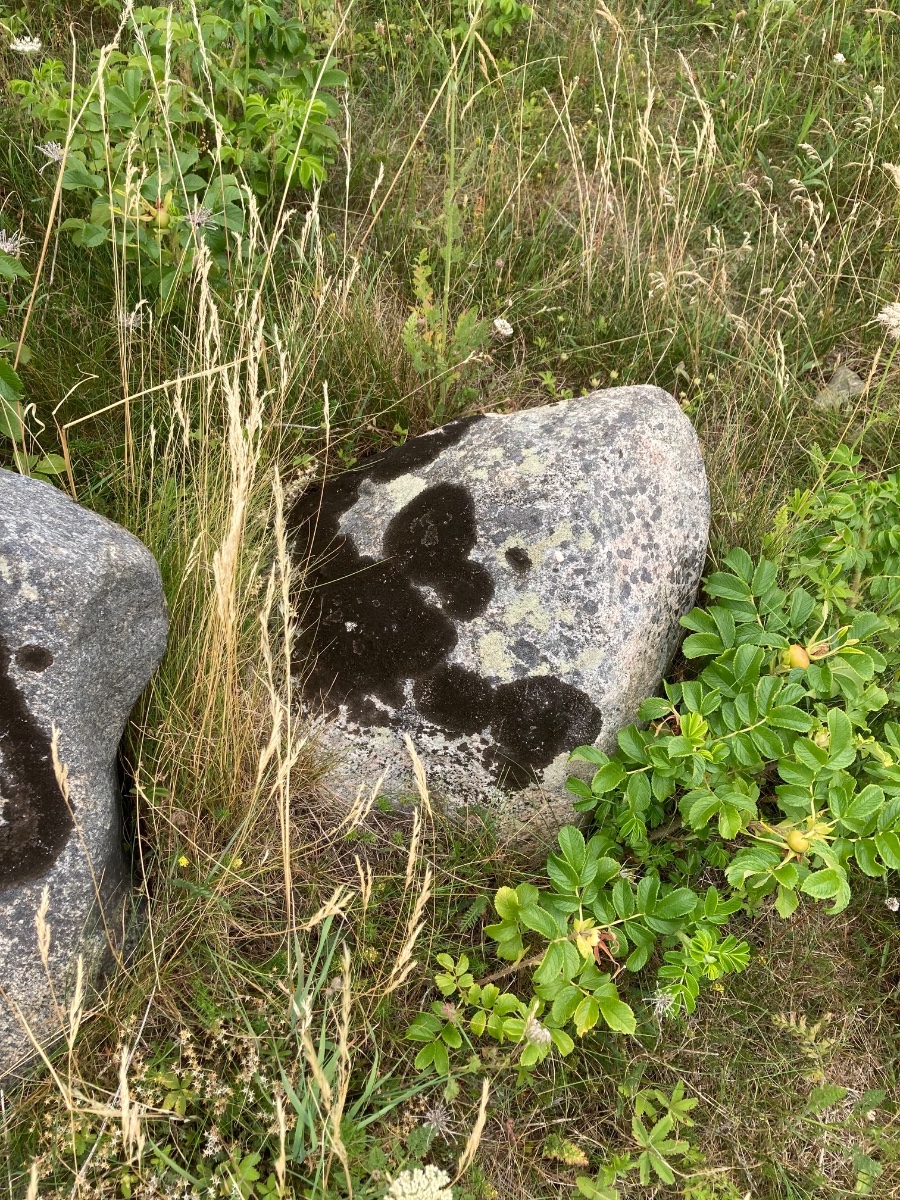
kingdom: Fungi
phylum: Ascomycota
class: Lecanoromycetes
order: Lecanorales
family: Parmeliaceae
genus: Melanelixia
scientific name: Melanelixia fuliginosa
